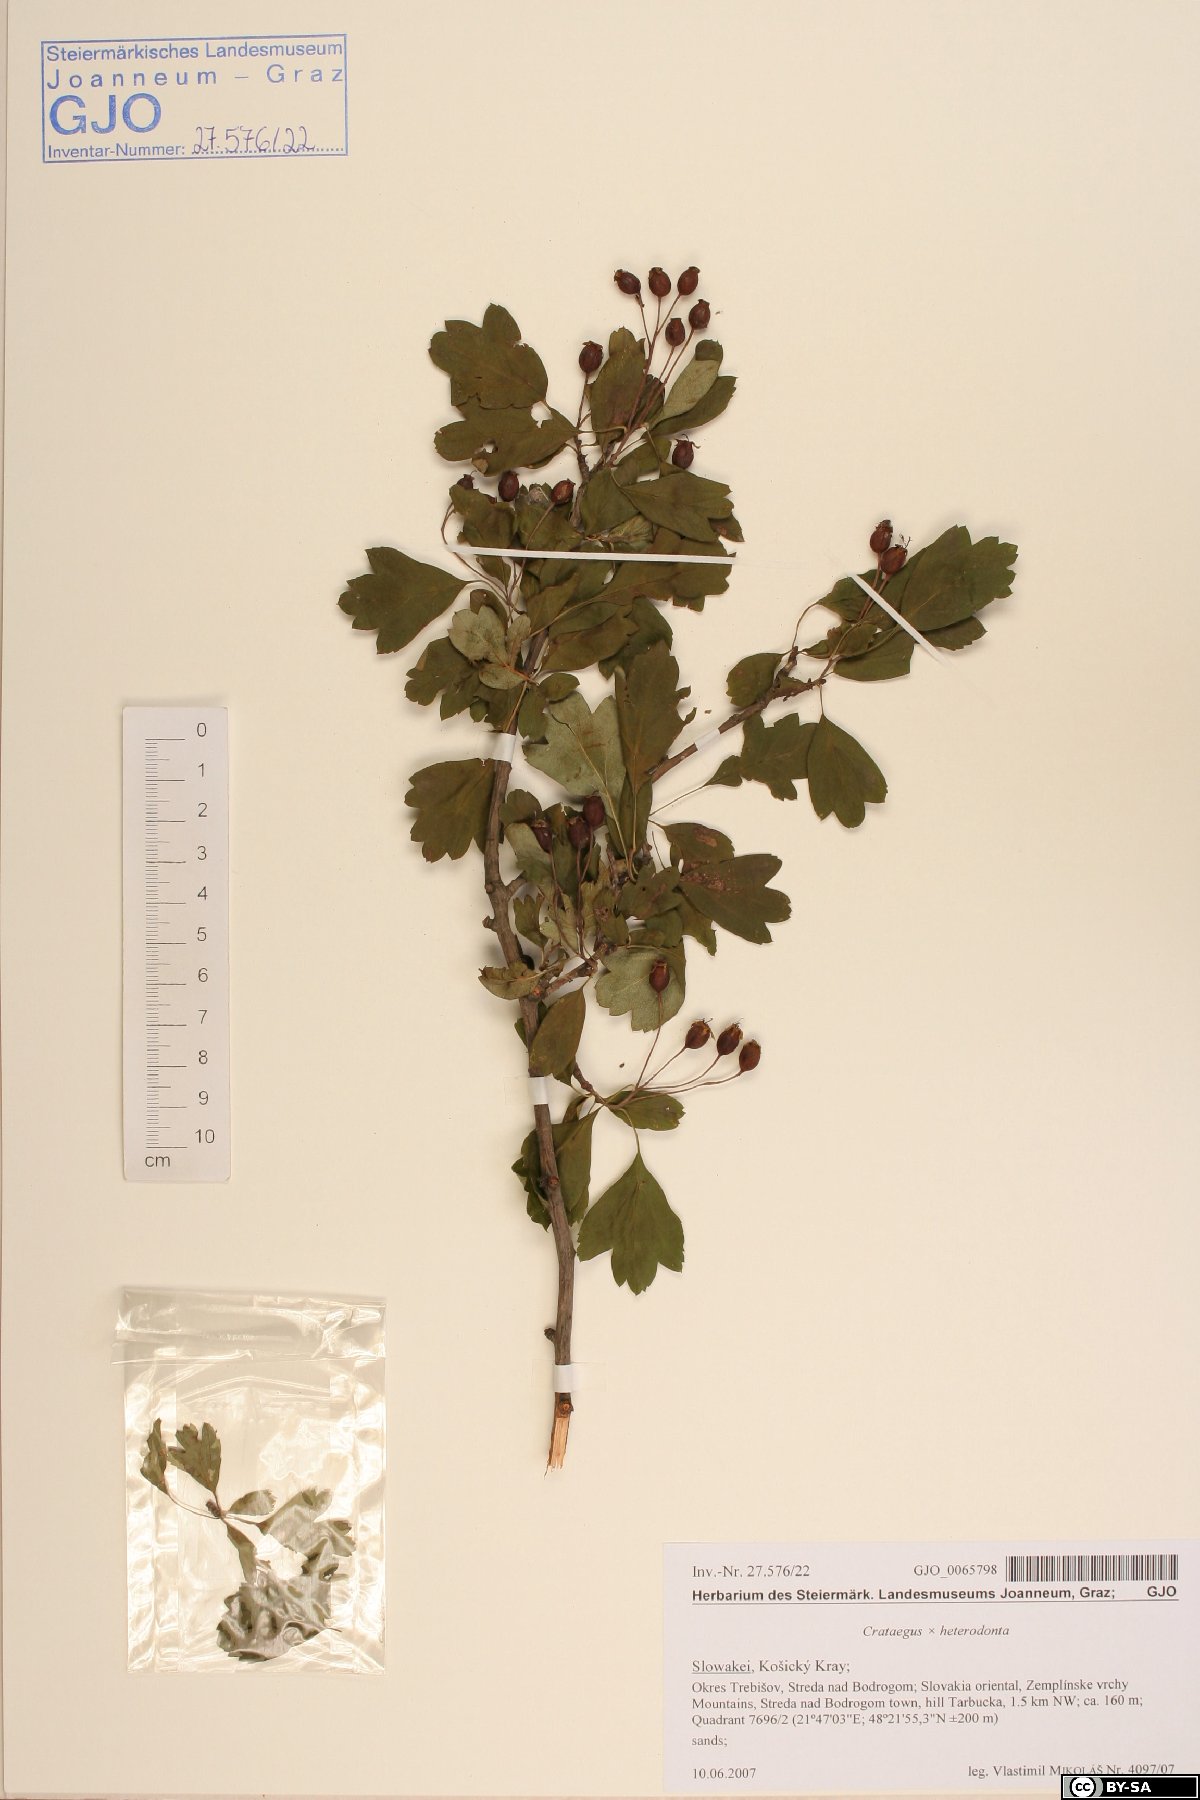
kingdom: Plantae
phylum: Tracheophyta
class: Magnoliopsida
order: Rosales
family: Rosaceae
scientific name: Rosaceae
